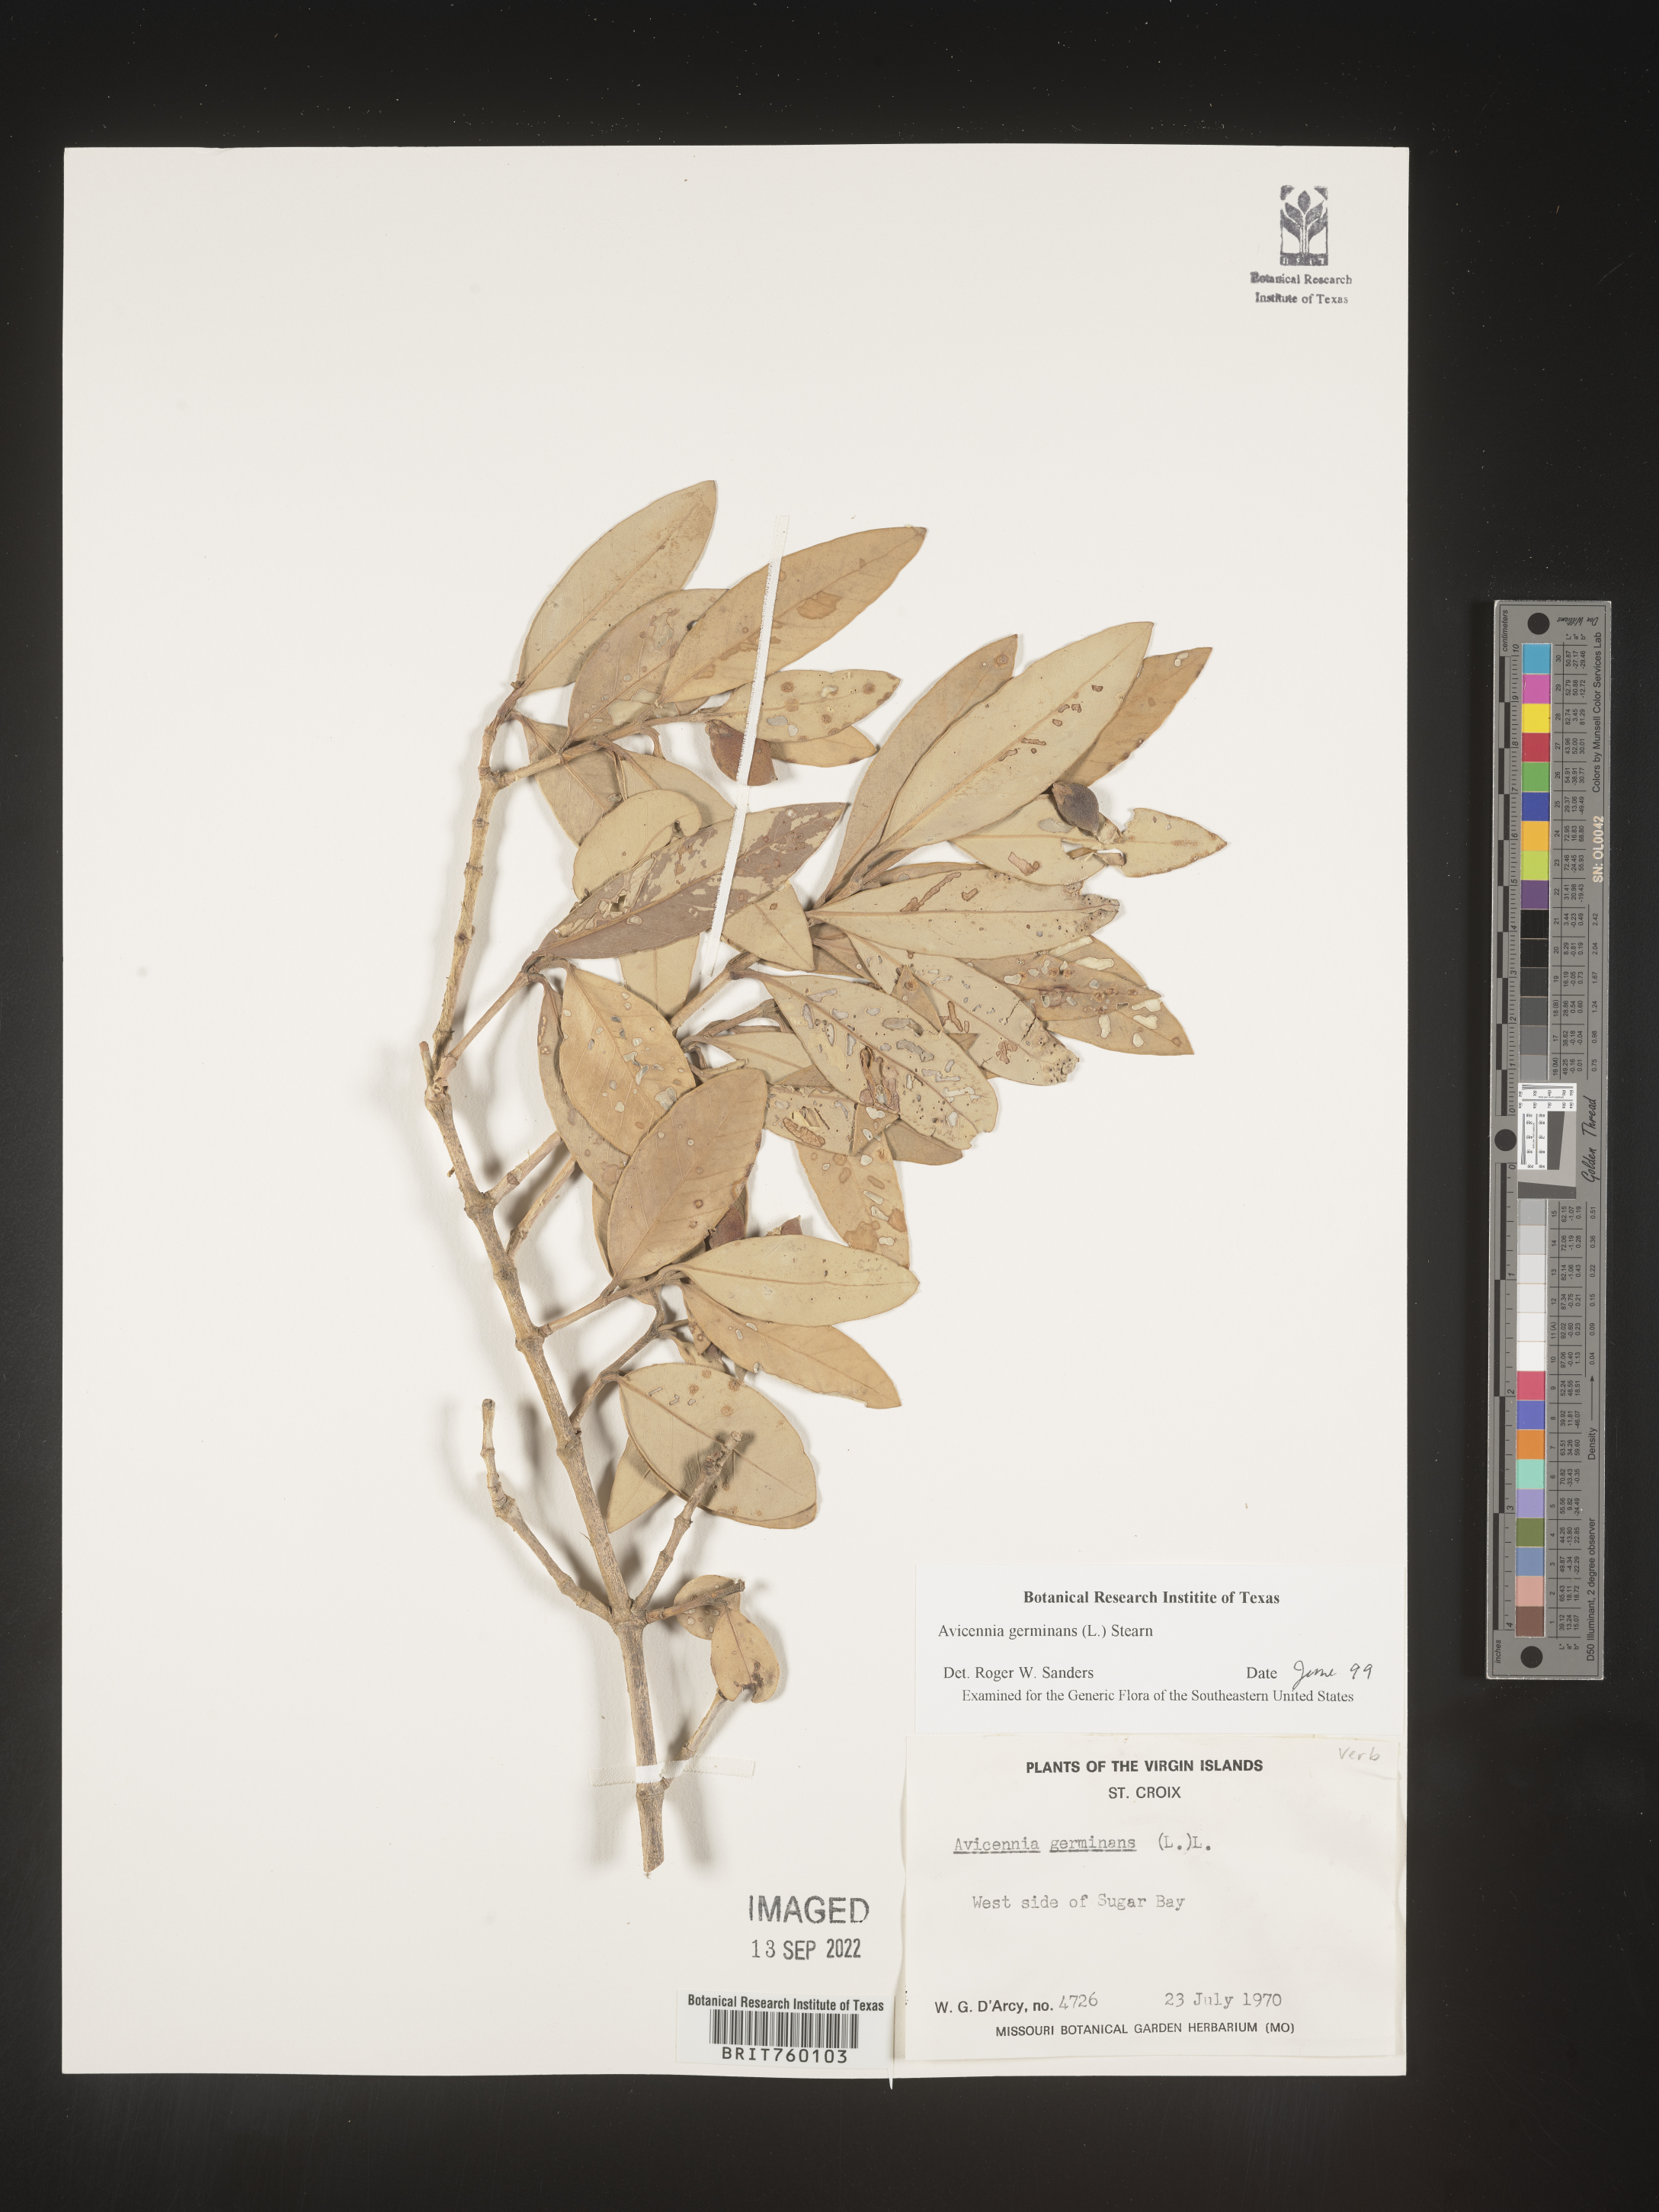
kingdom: Plantae
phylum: Tracheophyta
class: Magnoliopsida
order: Lamiales
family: Acanthaceae
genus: Avicennia
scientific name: Avicennia
